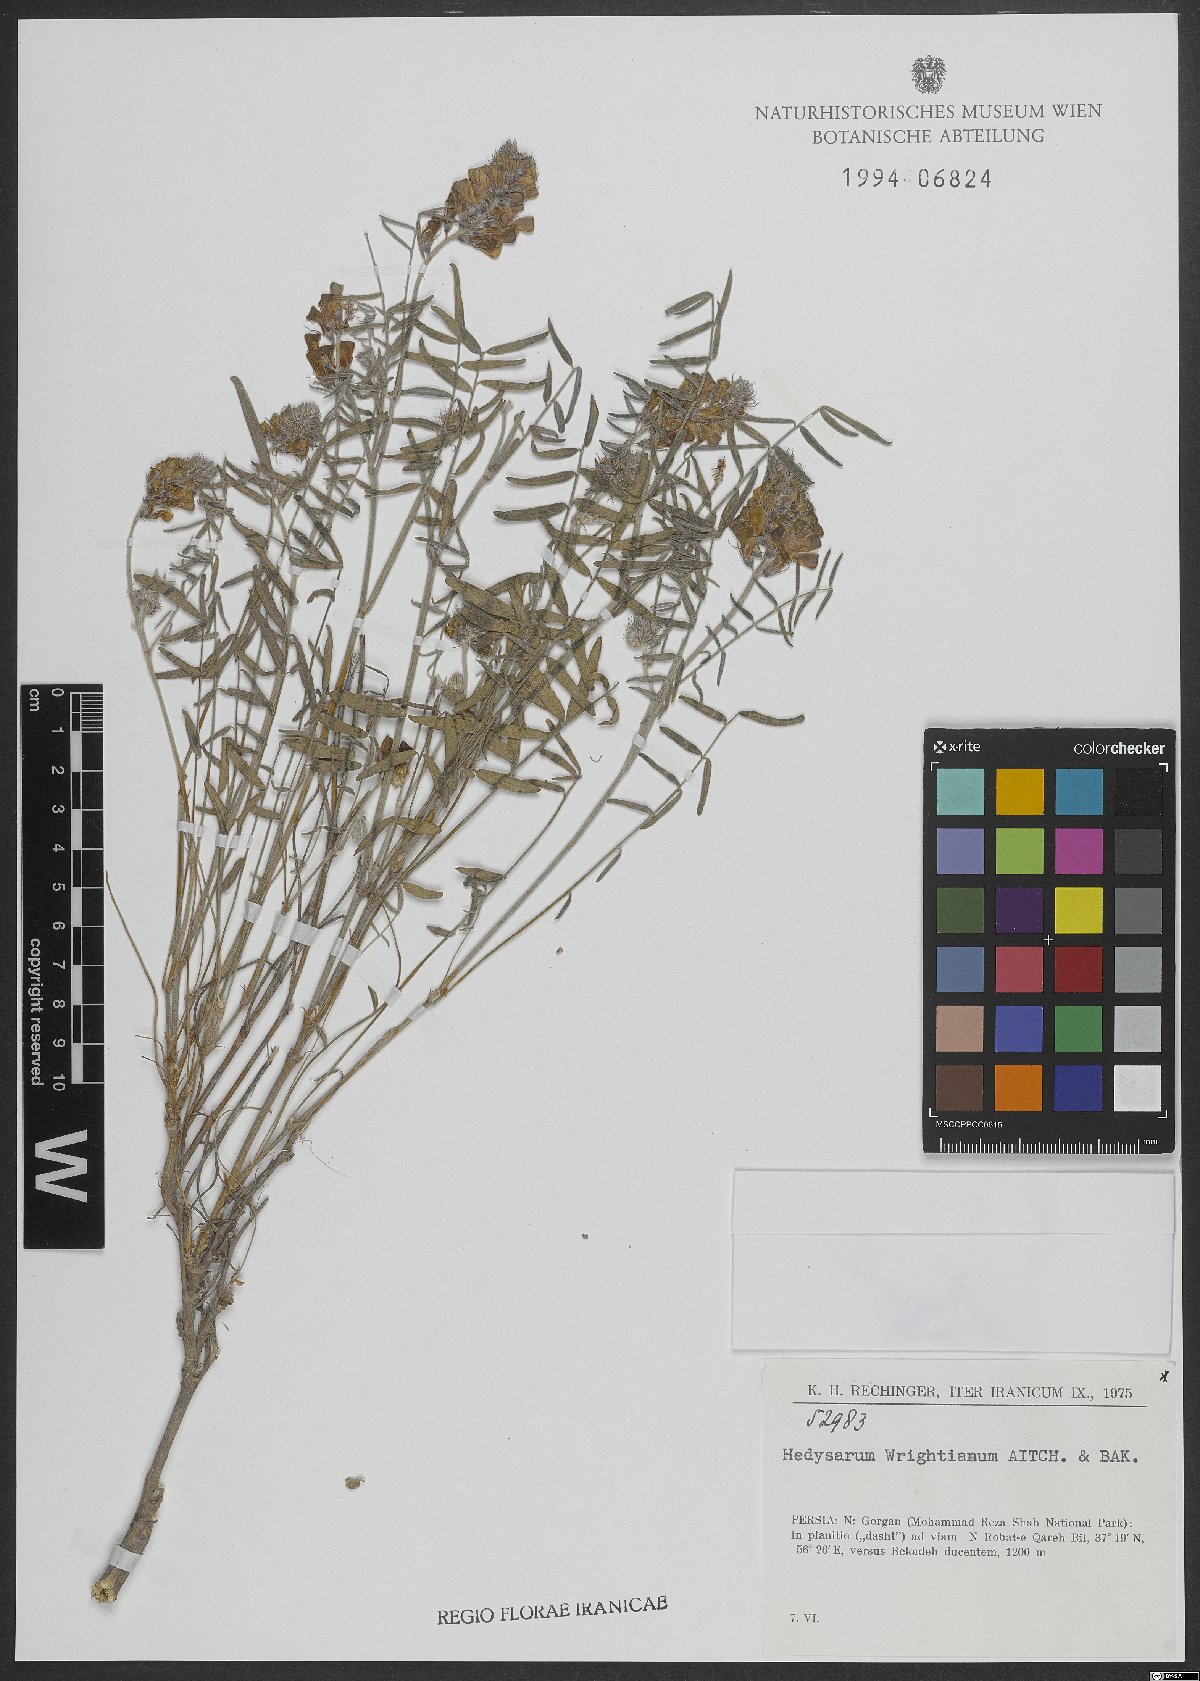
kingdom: Plantae
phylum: Tracheophyta
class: Magnoliopsida
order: Fabales
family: Fabaceae
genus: Hedysarum
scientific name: Hedysarum micropterum
